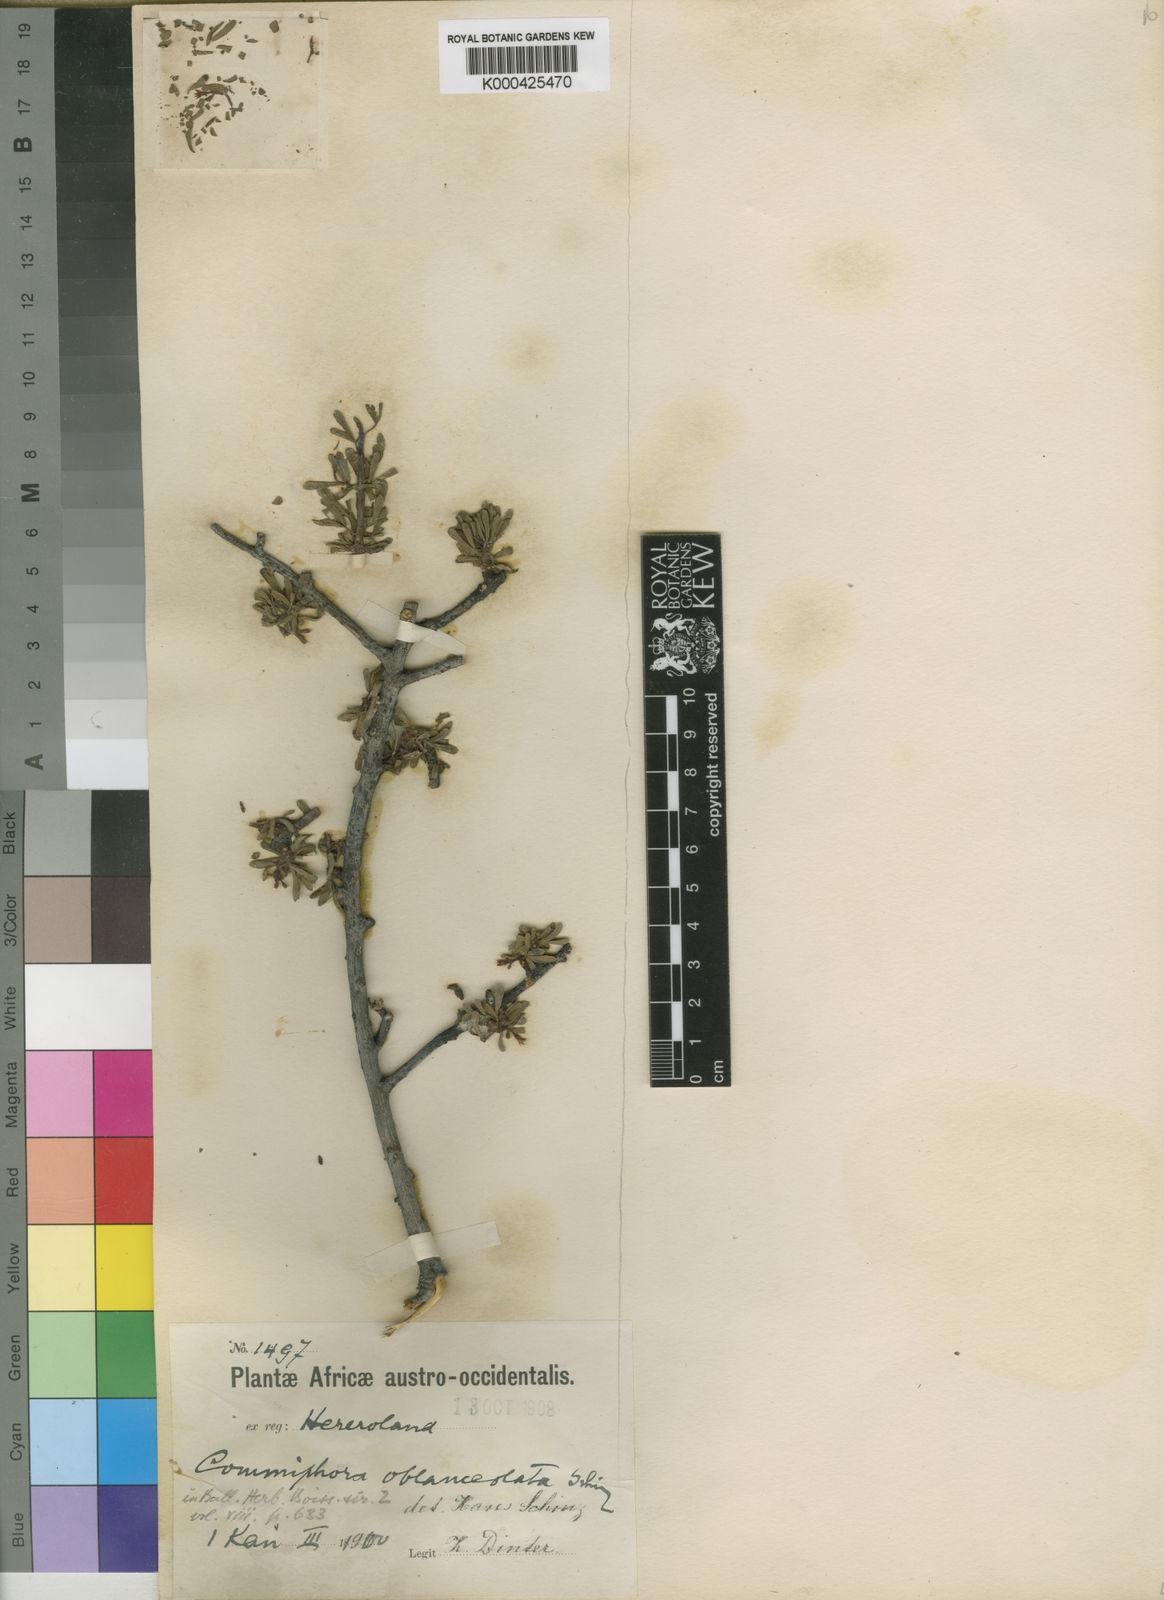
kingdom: Plantae
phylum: Tracheophyta
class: Magnoliopsida
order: Sapindales
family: Burseraceae
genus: Commiphora
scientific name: Commiphora oblanceolata
